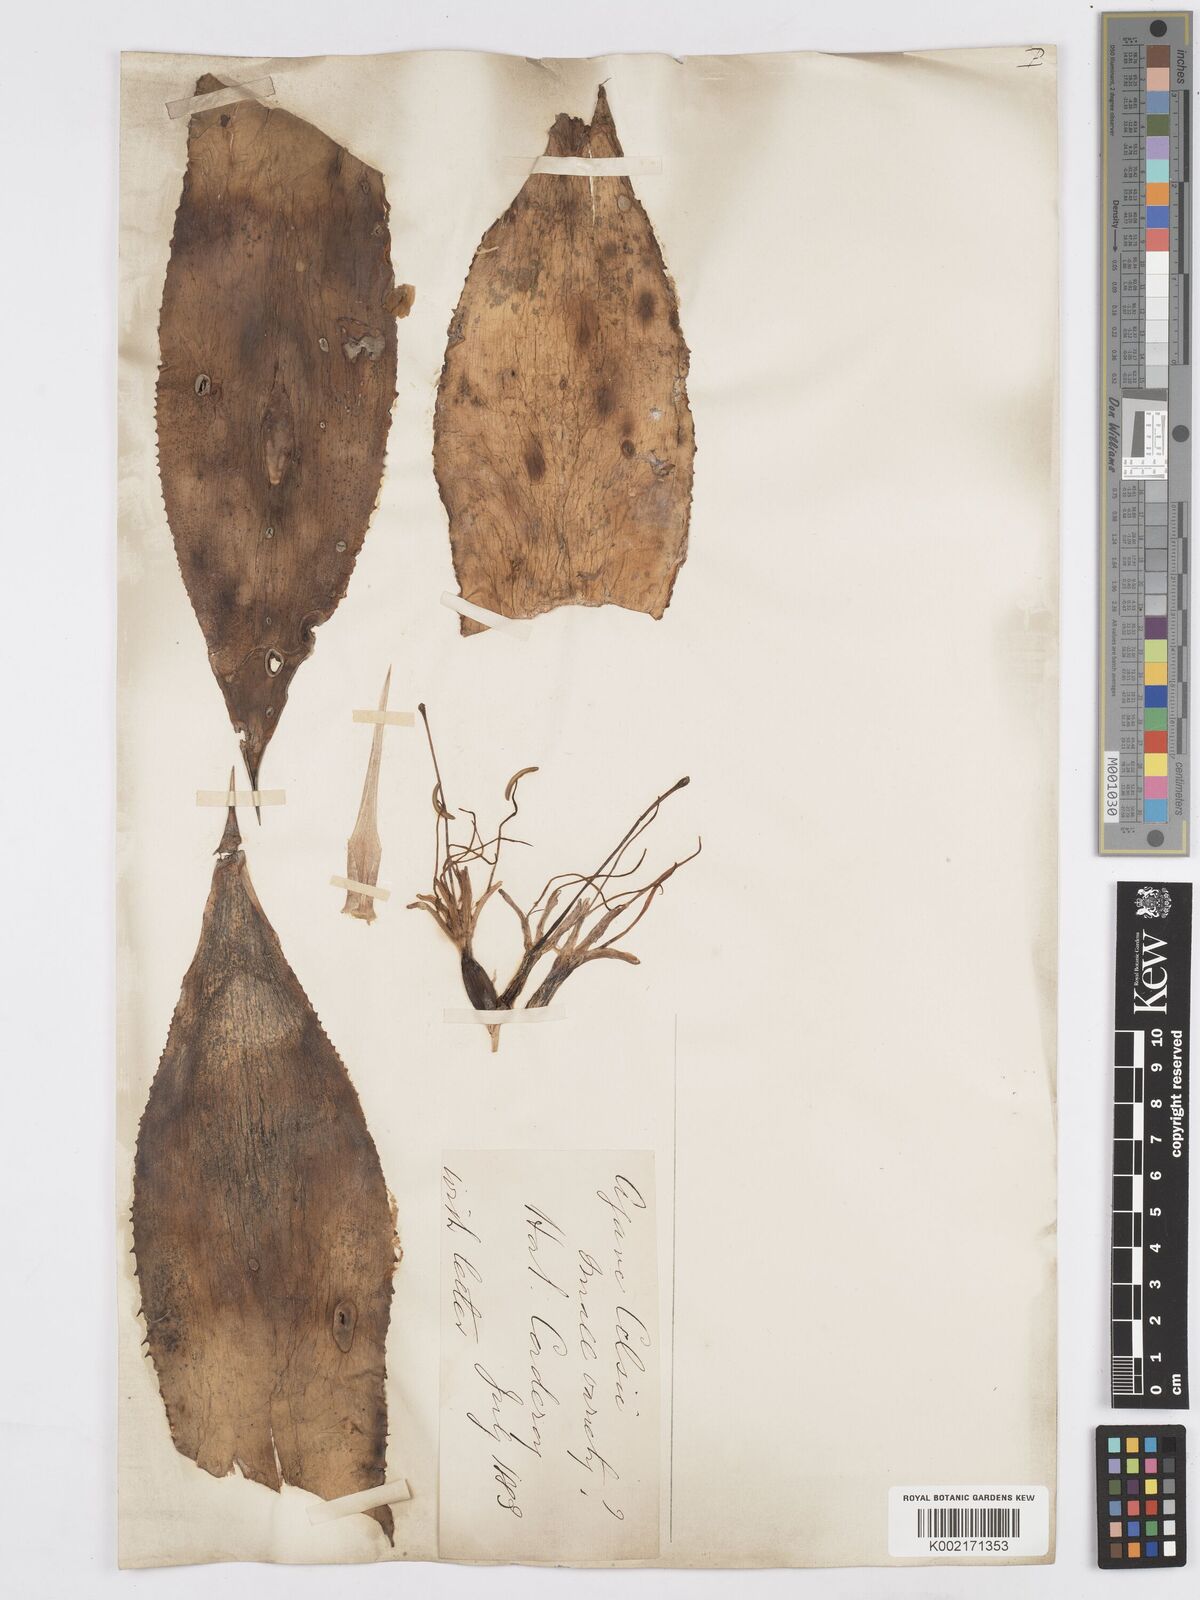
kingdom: Plantae
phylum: Tracheophyta
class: Liliopsida
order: Asparagales
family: Asparagaceae
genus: Agave
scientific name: Agave mitis
